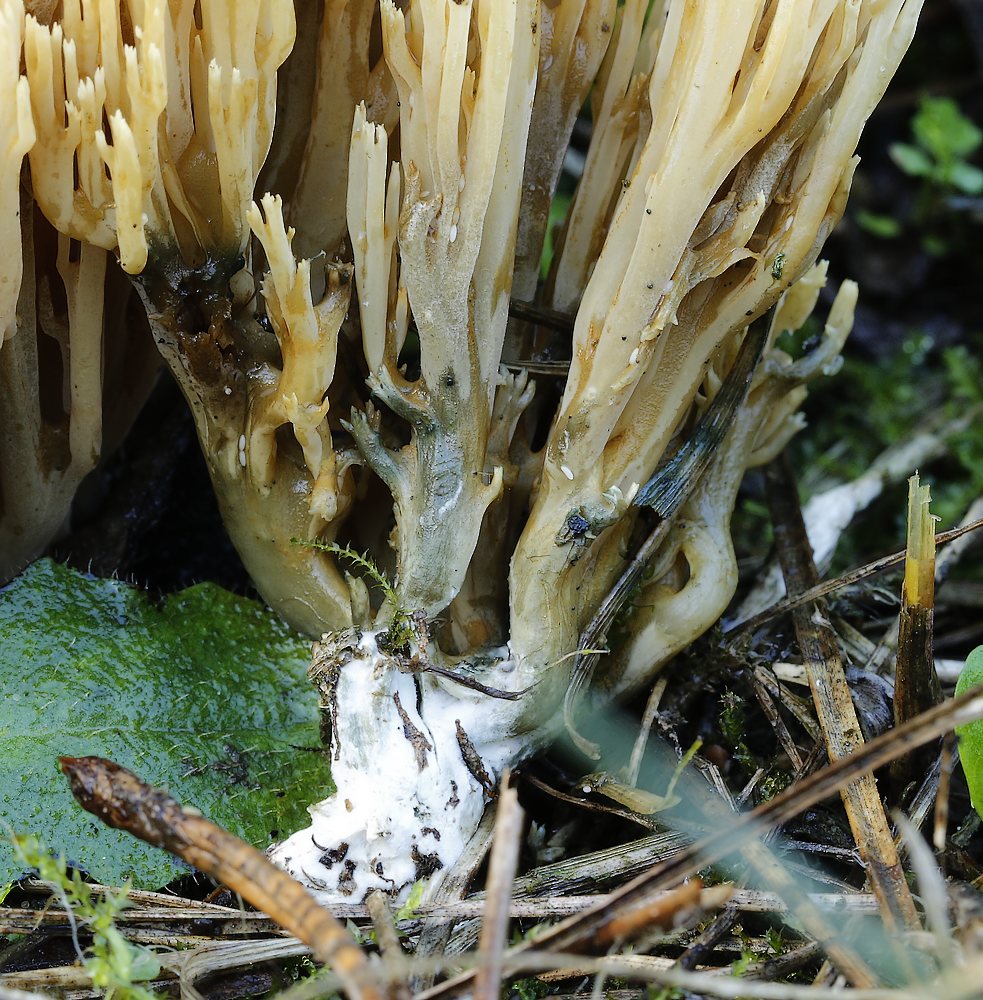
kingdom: Fungi
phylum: Basidiomycota
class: Agaricomycetes
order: Gomphales
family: Gomphaceae
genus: Phaeoclavulina
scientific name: Phaeoclavulina abietina
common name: gulgrøn koralsvamp
